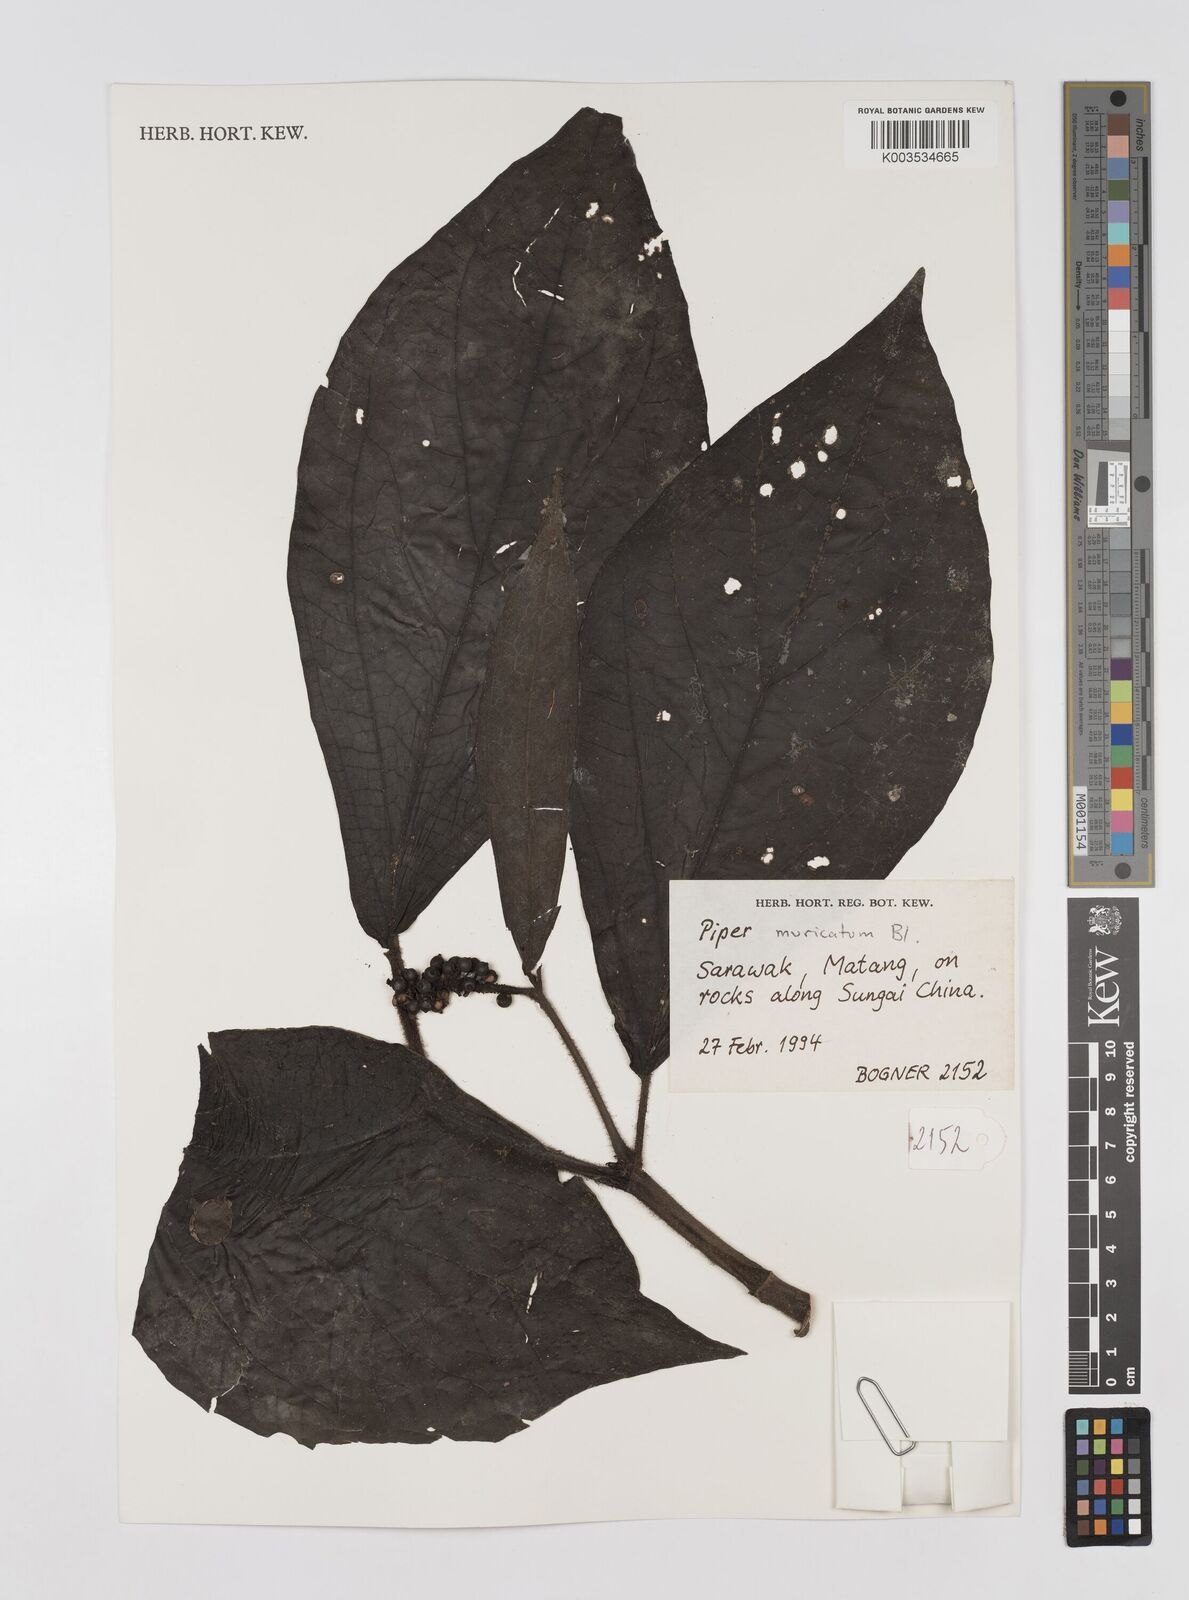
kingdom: Plantae
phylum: Tracheophyta
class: Magnoliopsida
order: Piperales
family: Piperaceae
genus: Piper
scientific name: Piper muricatum
